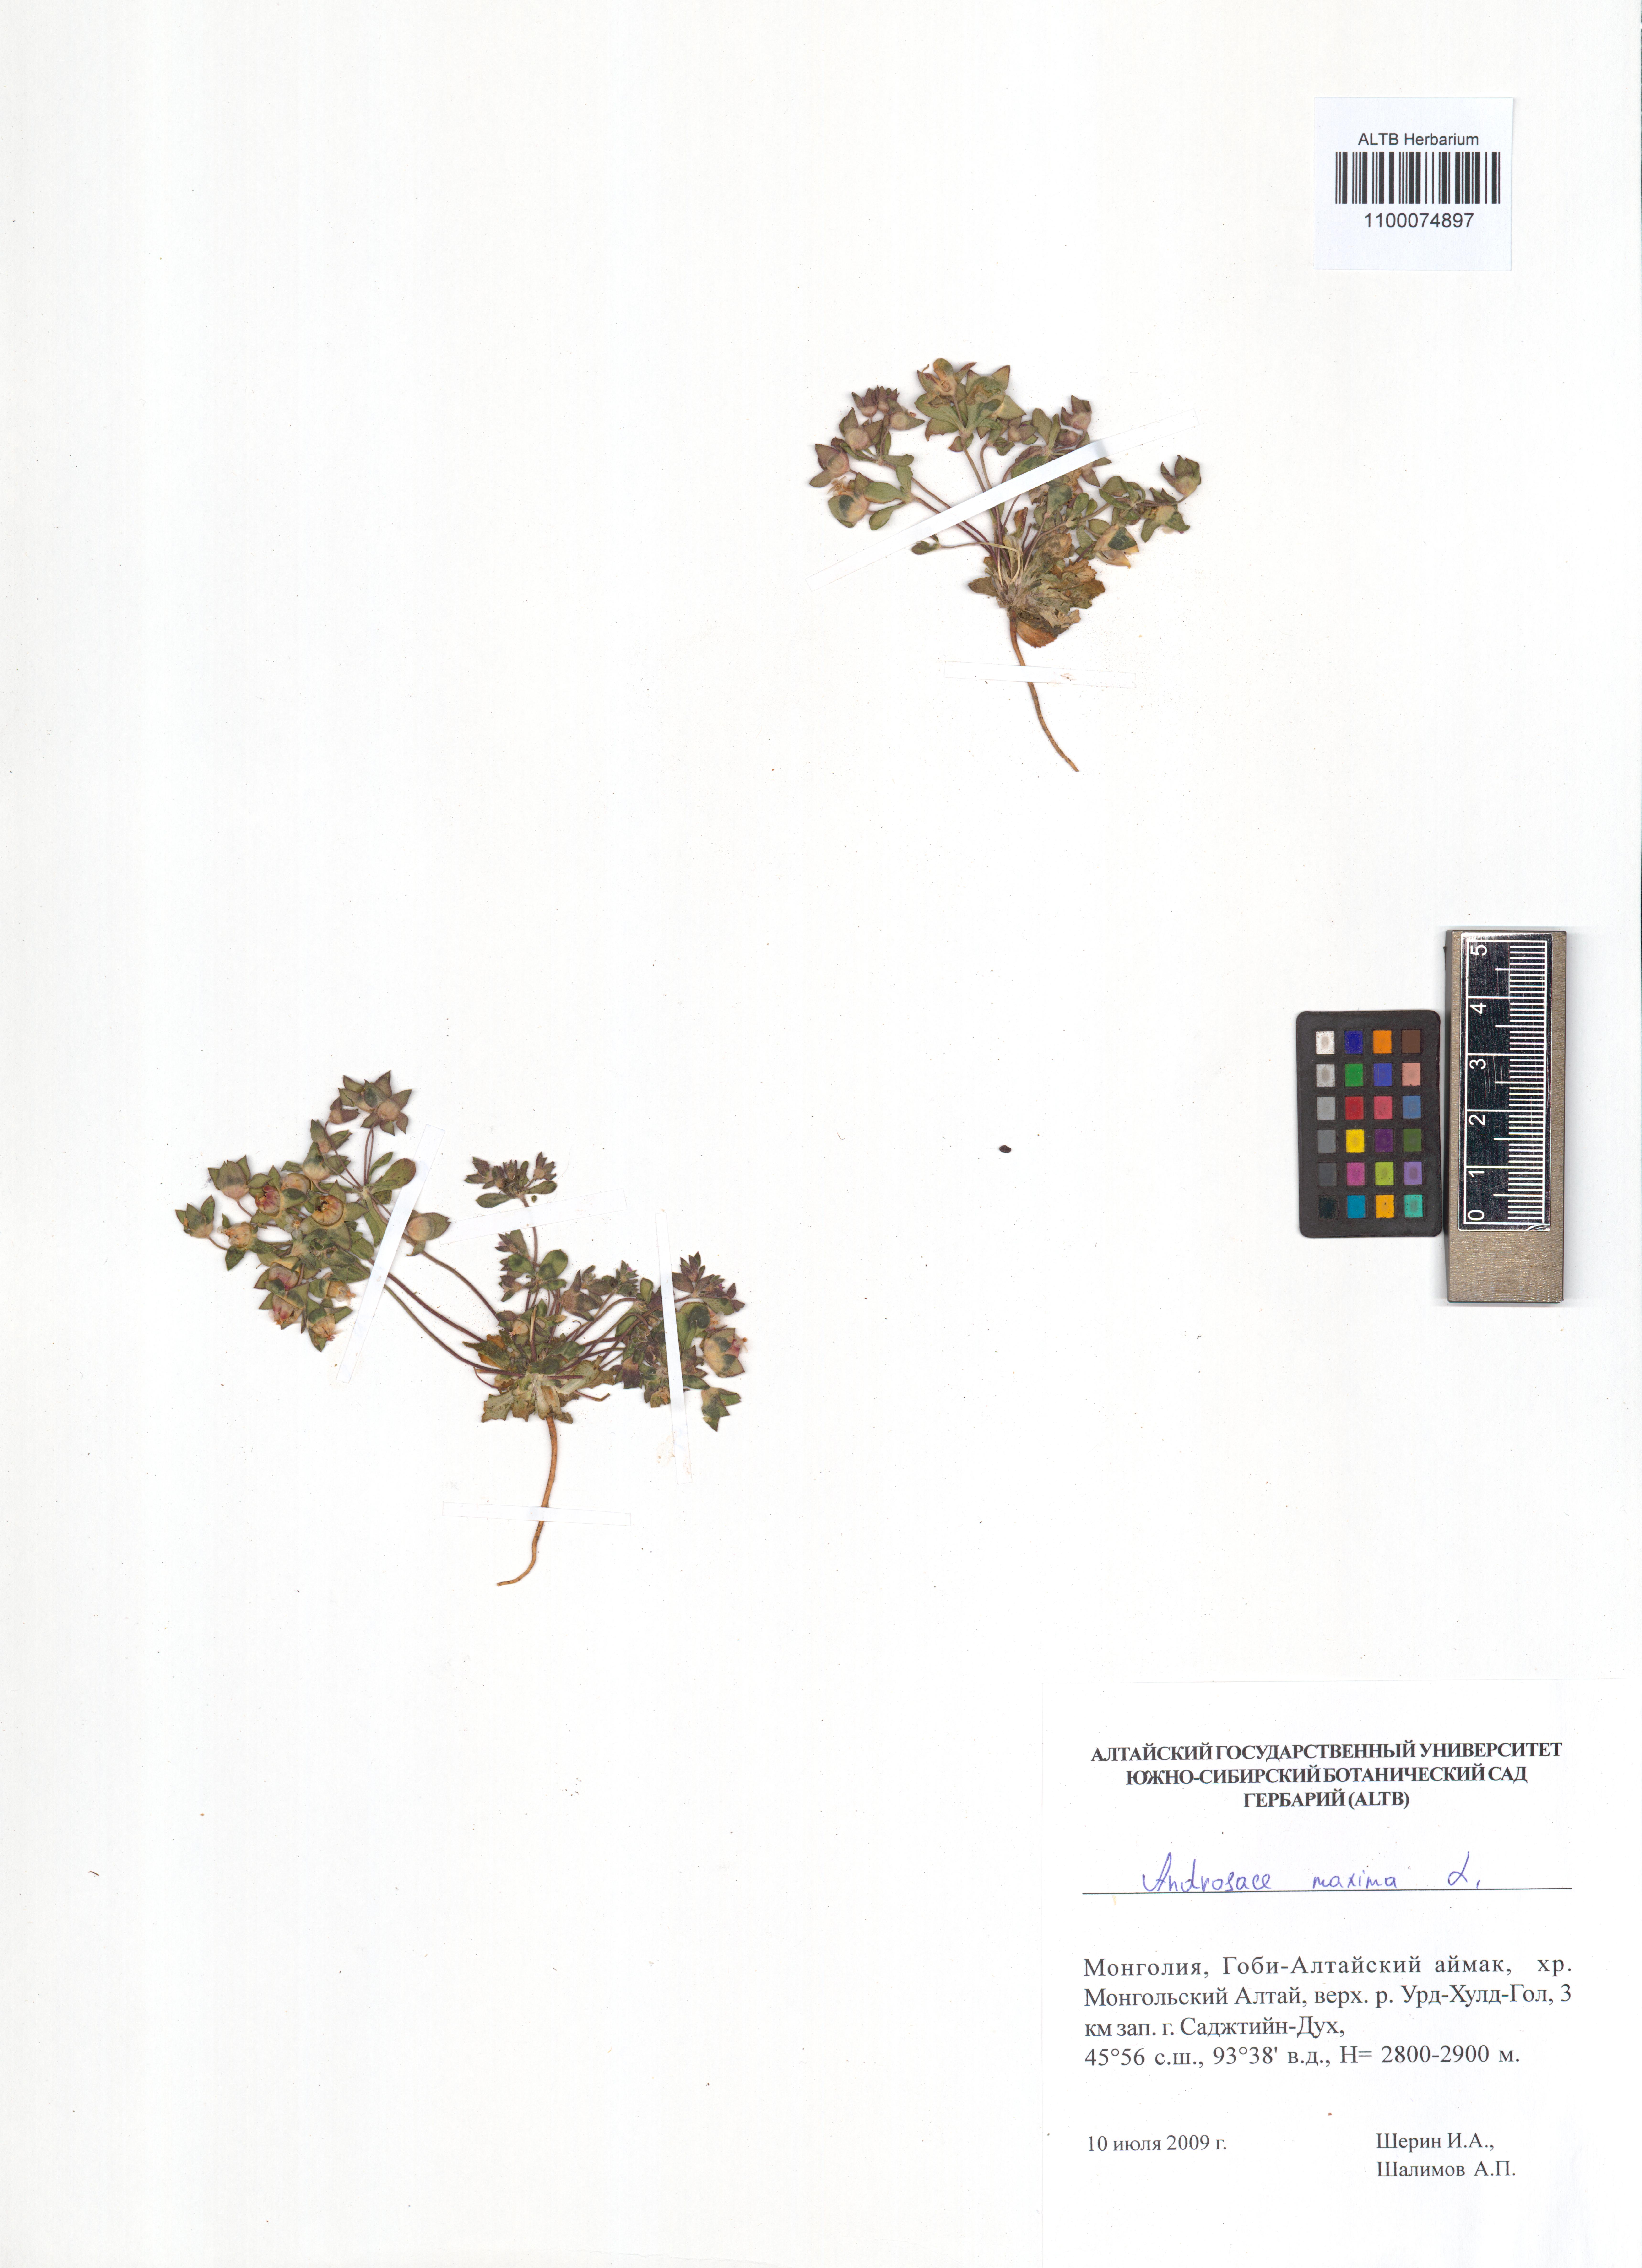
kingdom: Plantae
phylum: Tracheophyta
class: Magnoliopsida
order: Ericales
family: Primulaceae
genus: Androsace
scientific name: Androsace maxima
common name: Annual androsace
